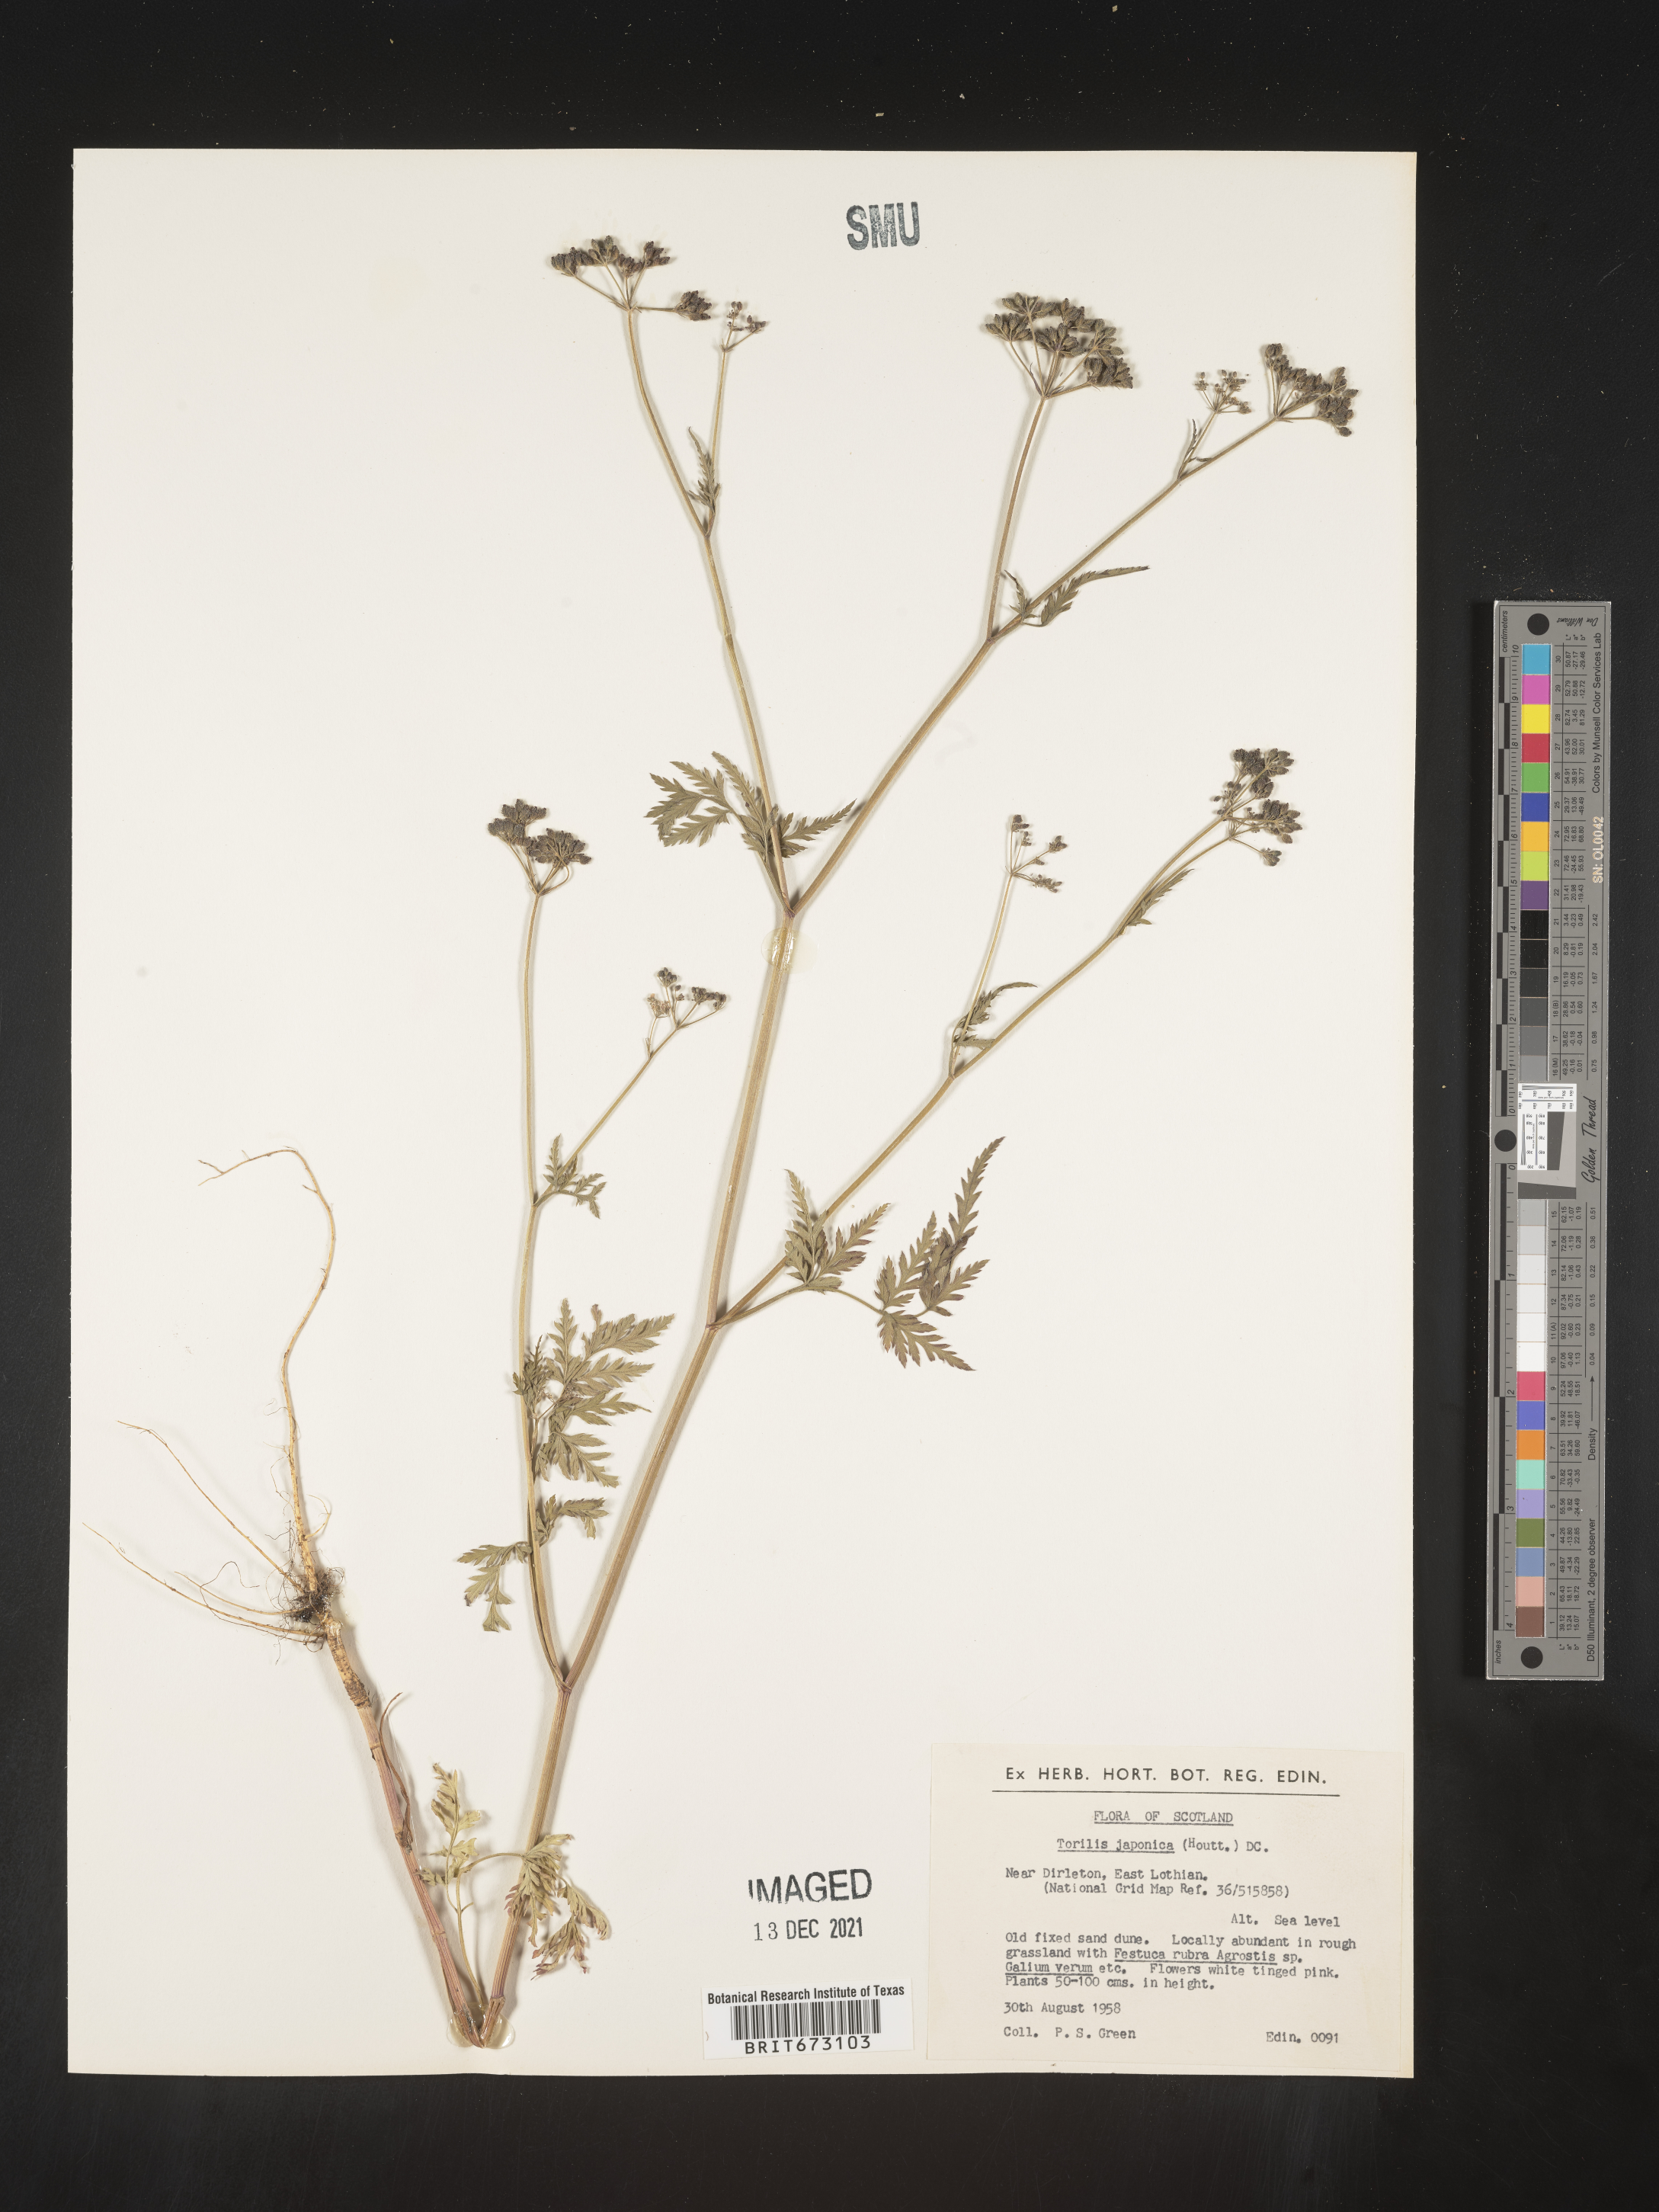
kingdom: Plantae
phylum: Tracheophyta
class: Magnoliopsida
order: Apiales
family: Apiaceae
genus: Torilis
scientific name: Torilis
